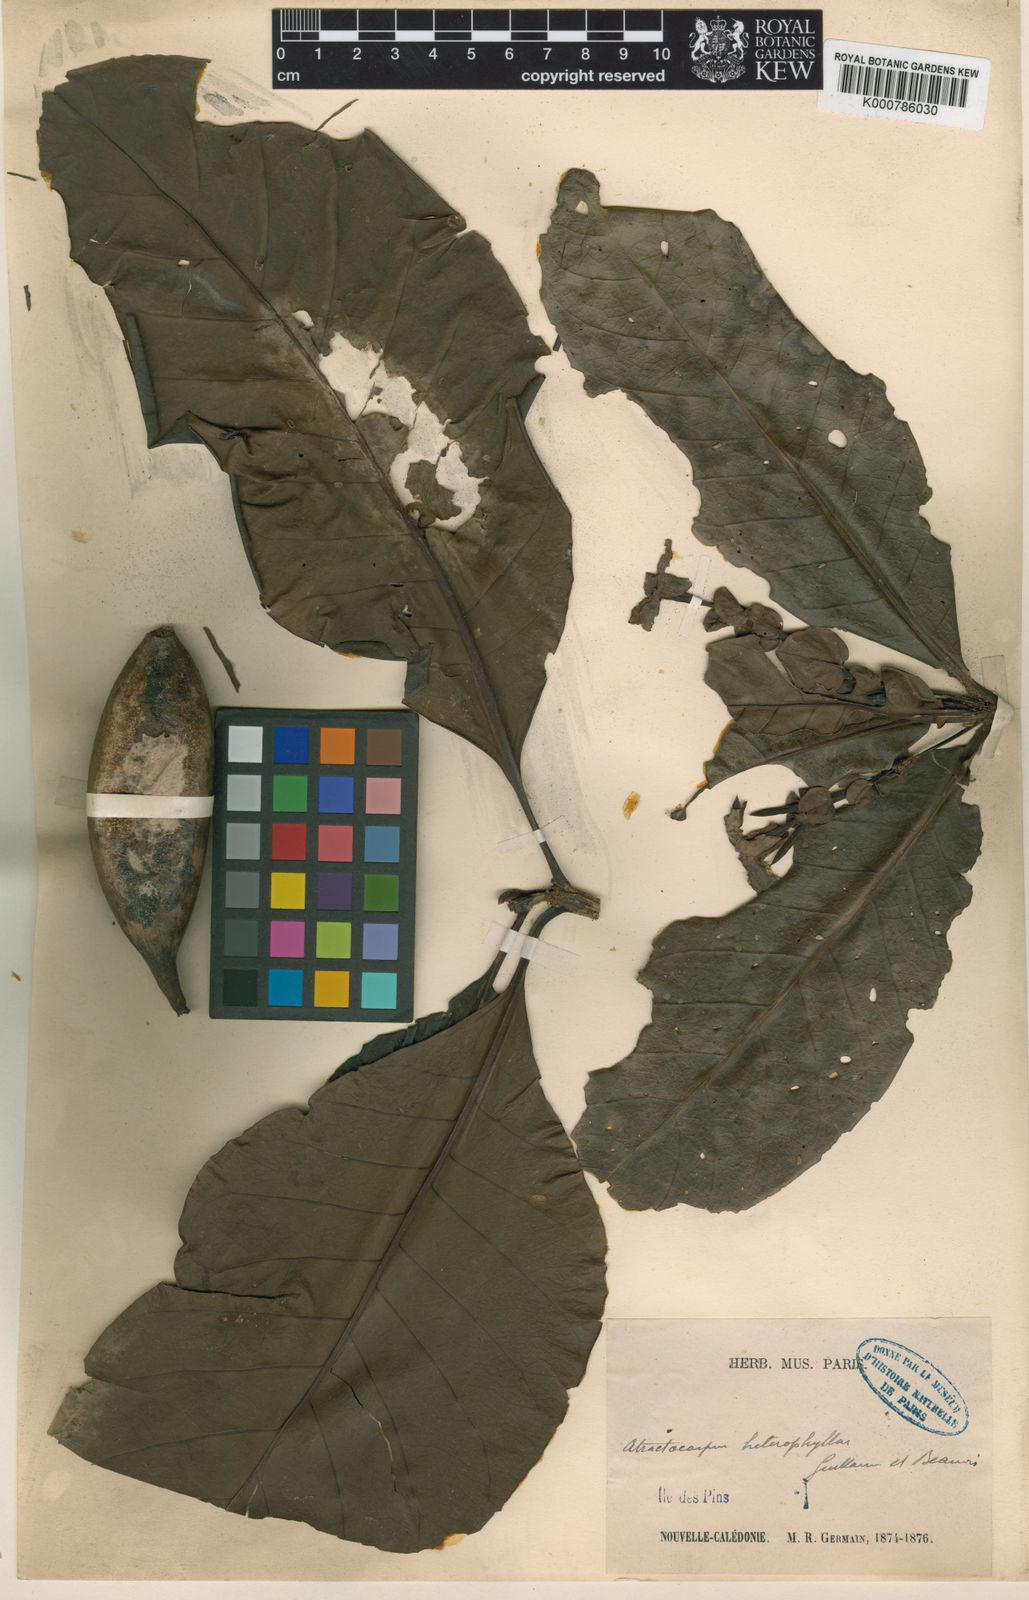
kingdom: Plantae
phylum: Tracheophyta
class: Magnoliopsida
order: Gentianales
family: Rubiaceae
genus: Atractocarpus
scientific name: Atractocarpus heterophyllus
